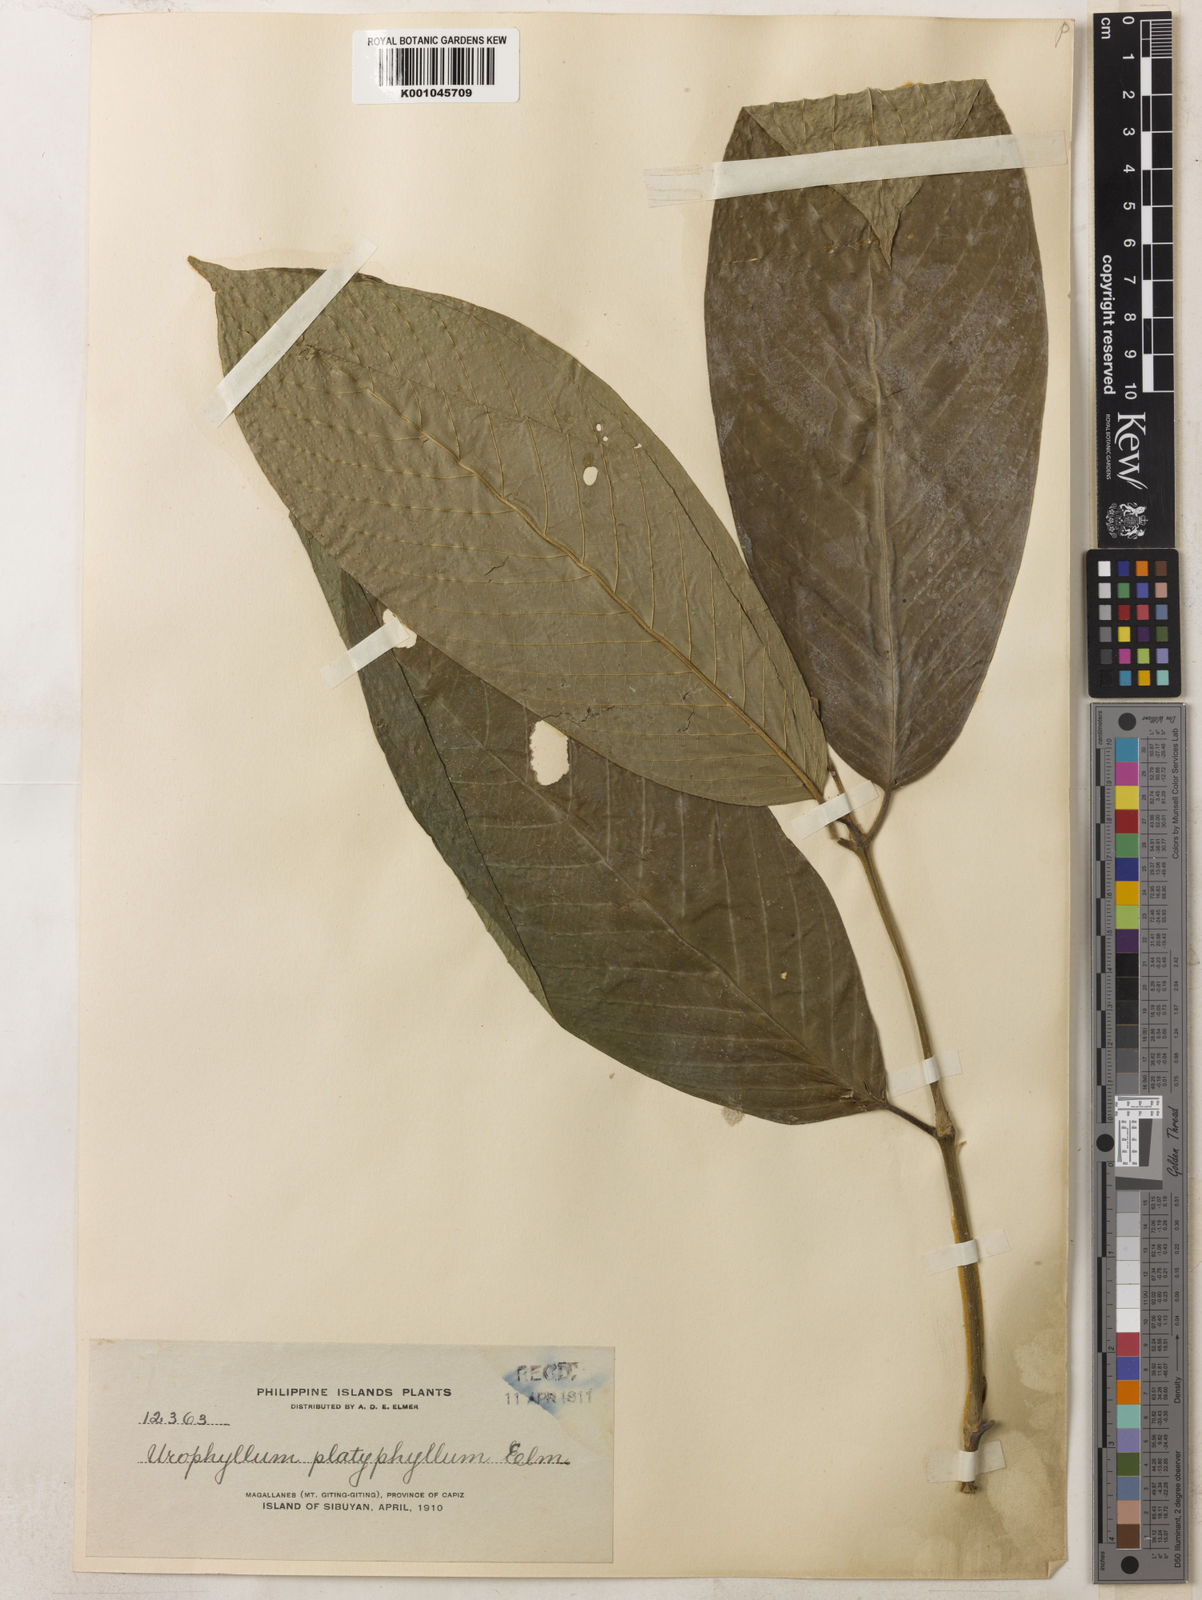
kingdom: Plantae
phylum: Tracheophyta
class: Magnoliopsida
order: Gentianales
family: Rubiaceae
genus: Urophyllum
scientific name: Urophyllum platyphyllum
